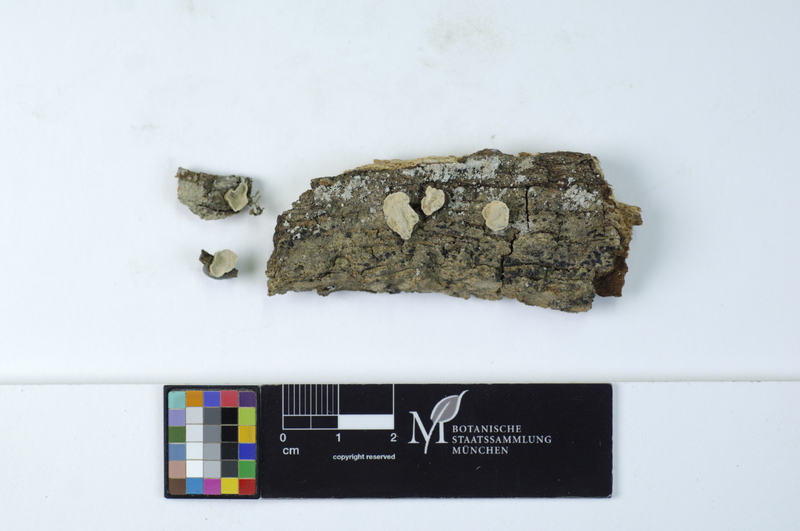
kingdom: Plantae
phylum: Tracheophyta
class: Magnoliopsida
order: Fagales
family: Fagaceae
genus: Quercus
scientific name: Quercus
